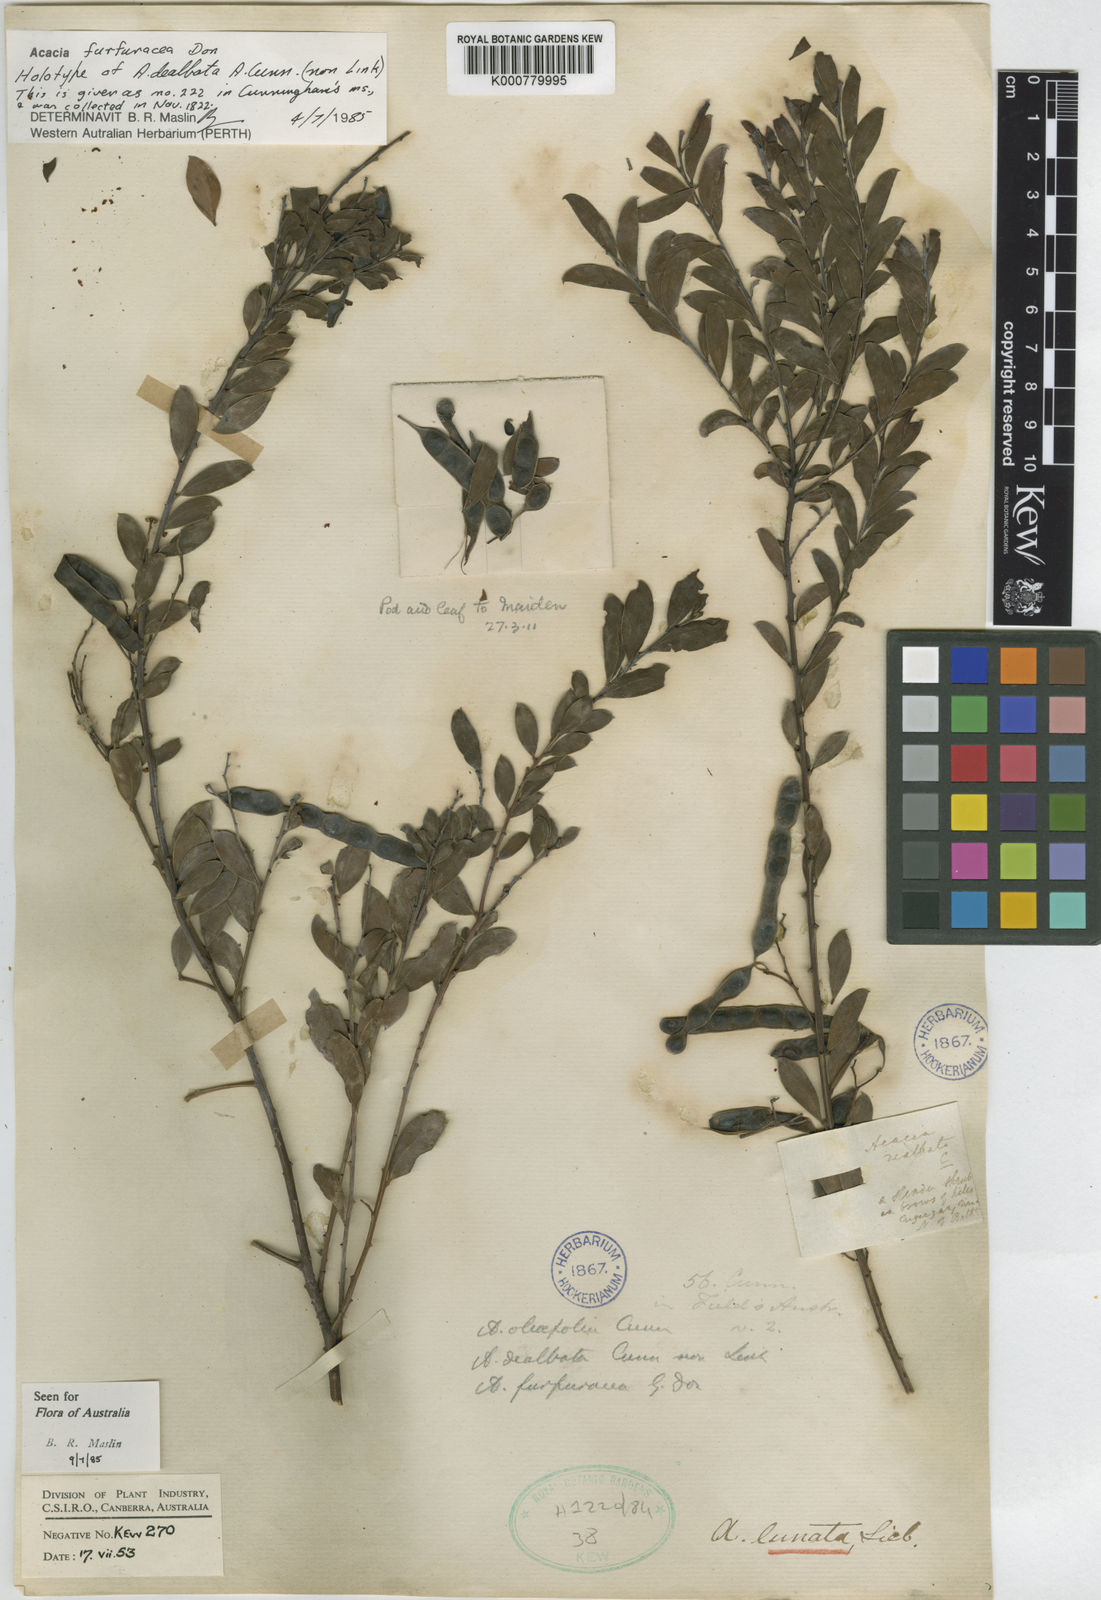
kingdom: Plantae
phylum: Tracheophyta
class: Magnoliopsida
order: Fabales
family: Fabaceae
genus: Acacia
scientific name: Acacia
